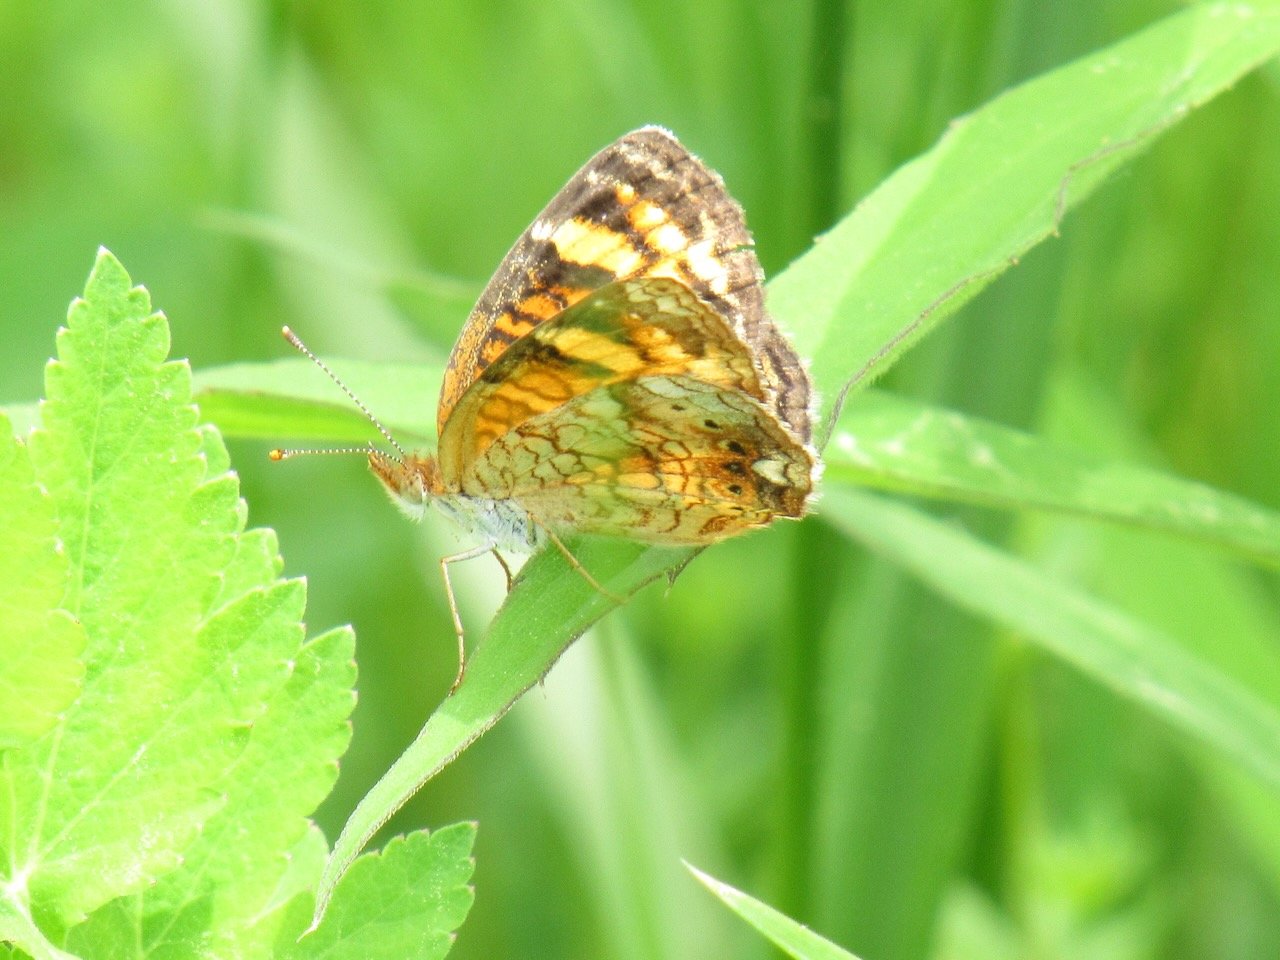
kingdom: Animalia
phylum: Arthropoda
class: Insecta
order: Lepidoptera
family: Nymphalidae
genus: Phyciodes
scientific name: Phyciodes tharos
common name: Pearl Crescent
